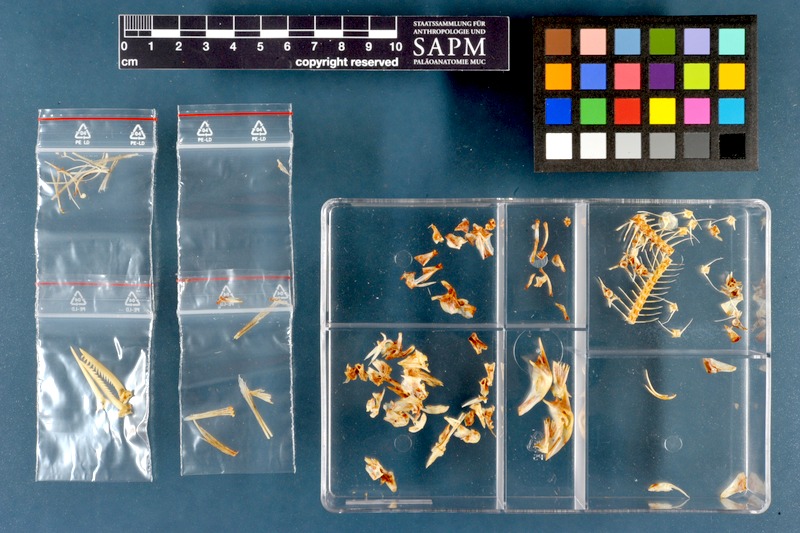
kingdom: Animalia
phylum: Chordata
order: Siluriformes
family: Bagridae
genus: Mystus
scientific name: Mystus pelusius
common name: Zugzug catfish
